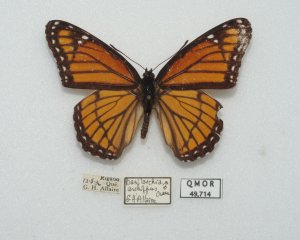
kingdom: Animalia
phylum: Arthropoda
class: Insecta
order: Lepidoptera
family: Nymphalidae
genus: Limenitis
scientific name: Limenitis archippus
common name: Viceroy
